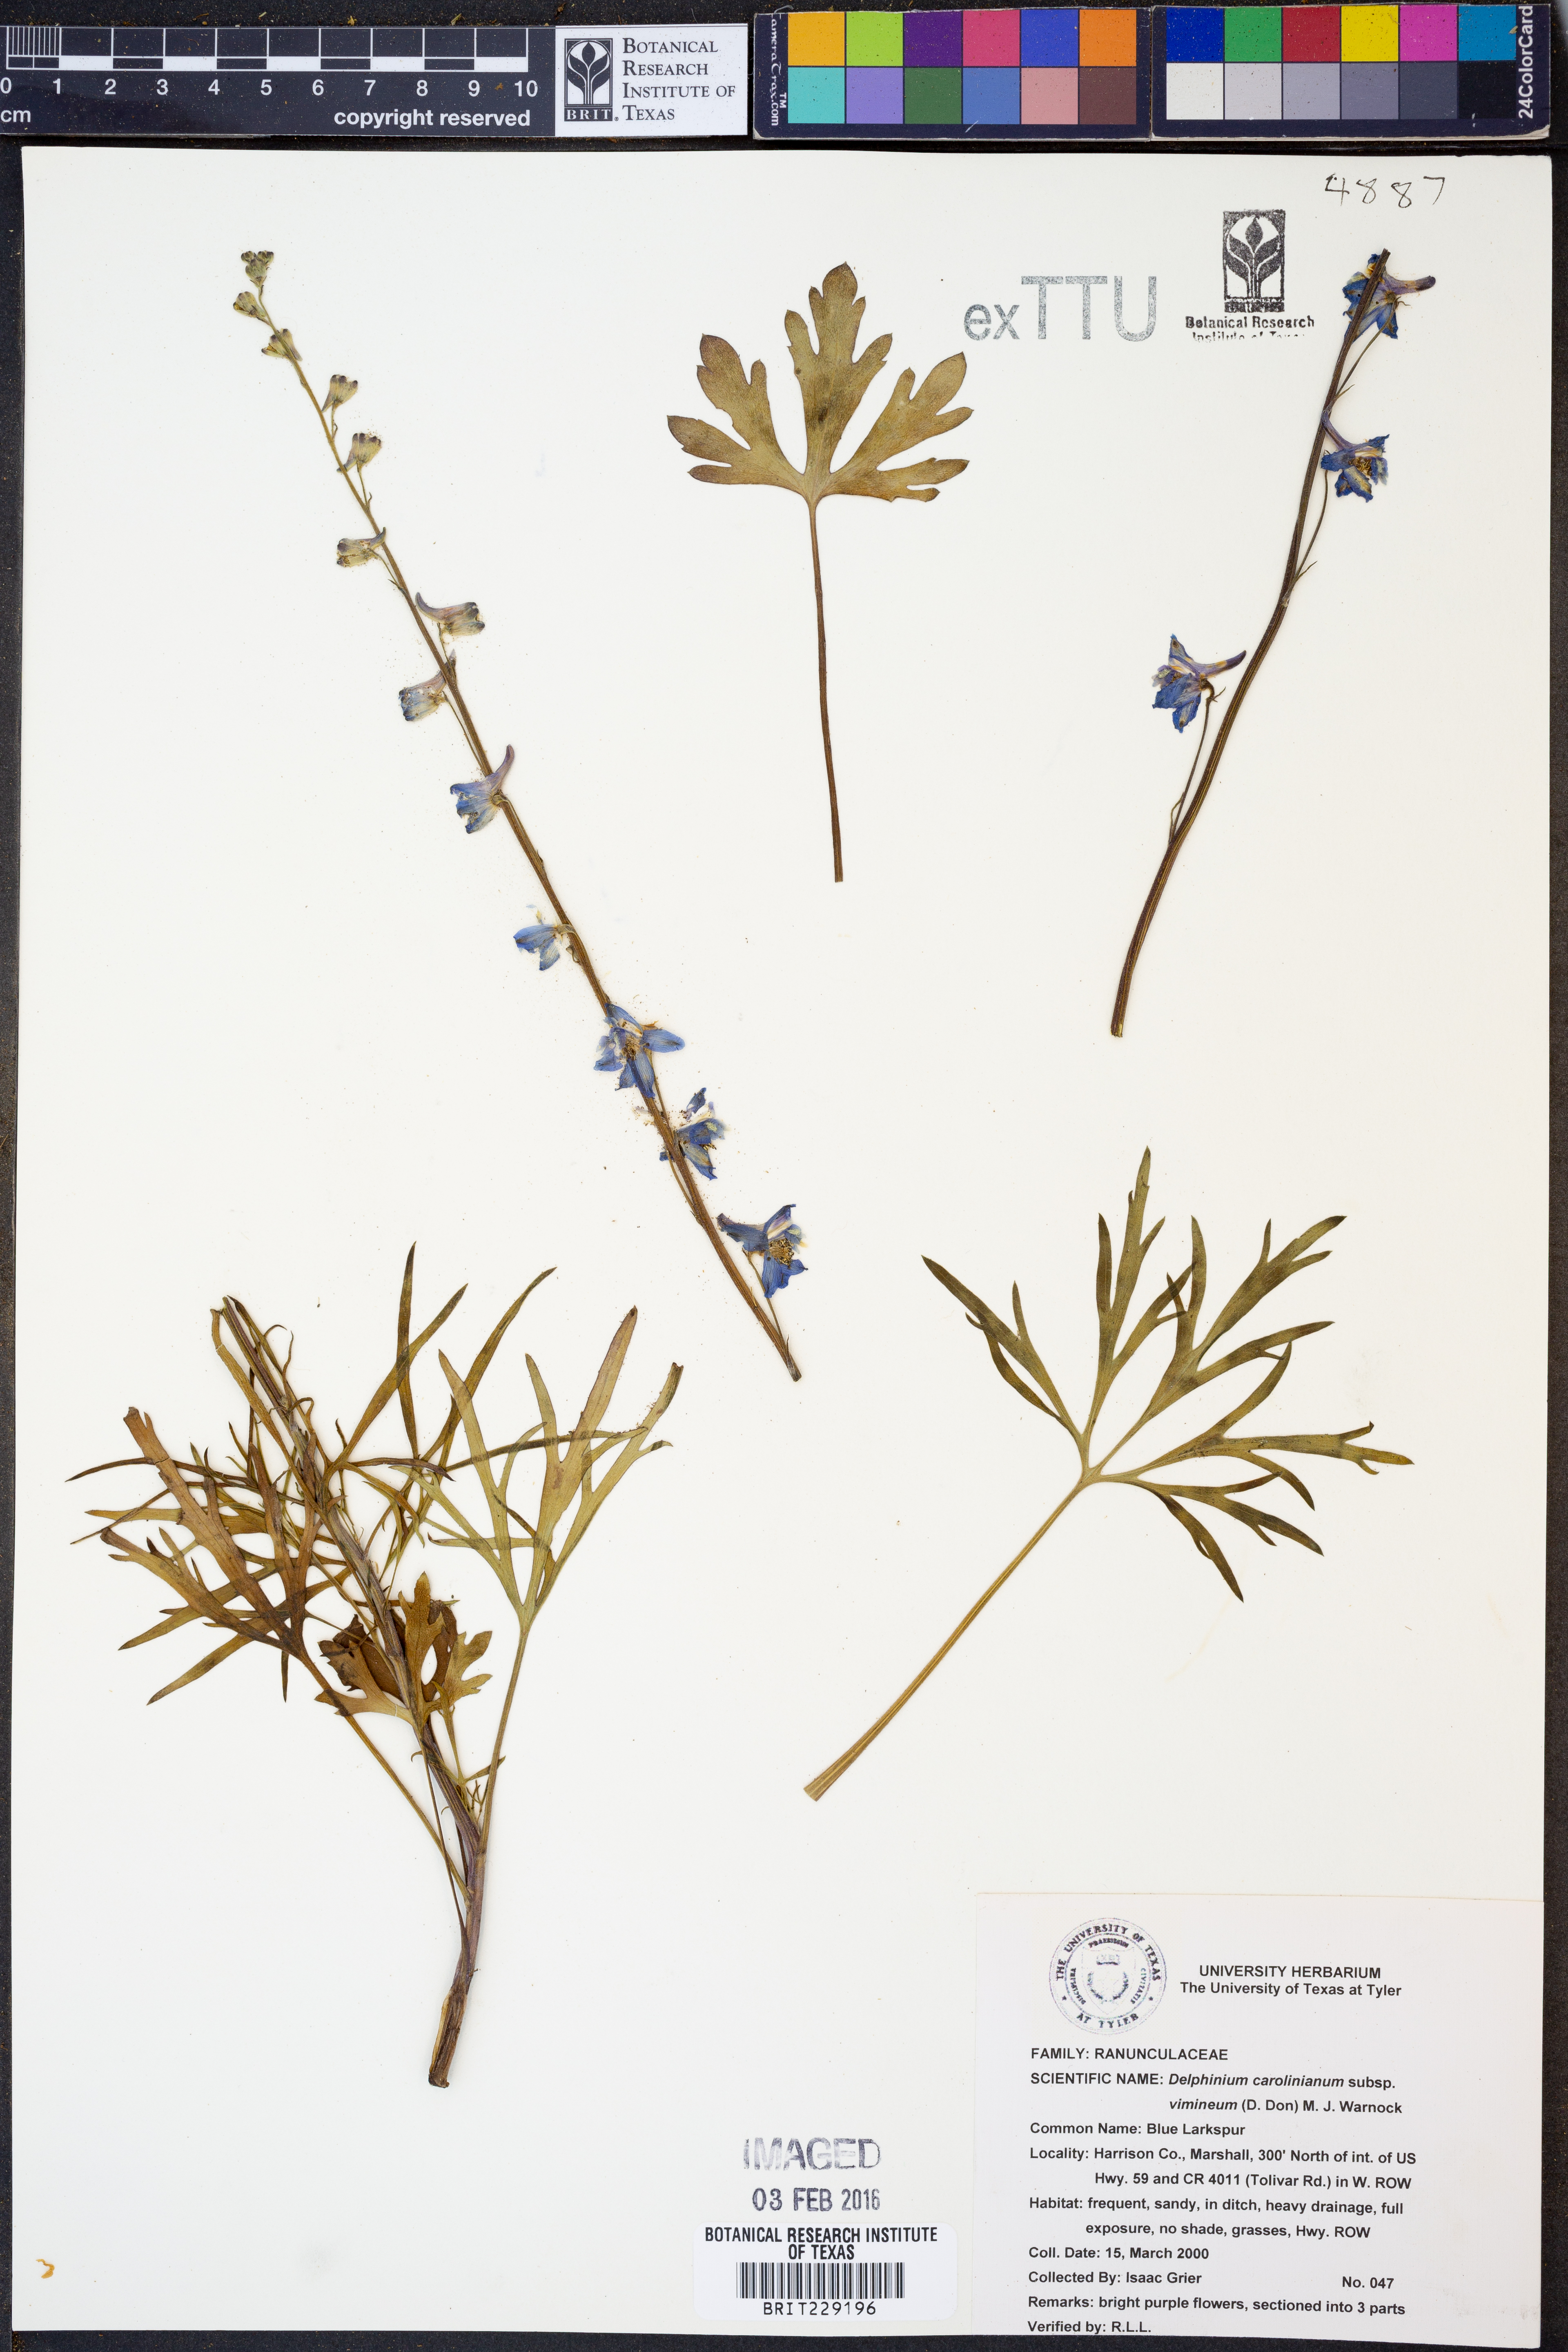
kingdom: Plantae
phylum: Tracheophyta
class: Magnoliopsida
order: Ranunculales
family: Ranunculaceae
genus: Delphinium
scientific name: Delphinium carolinianum
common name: Carolina larkspur
